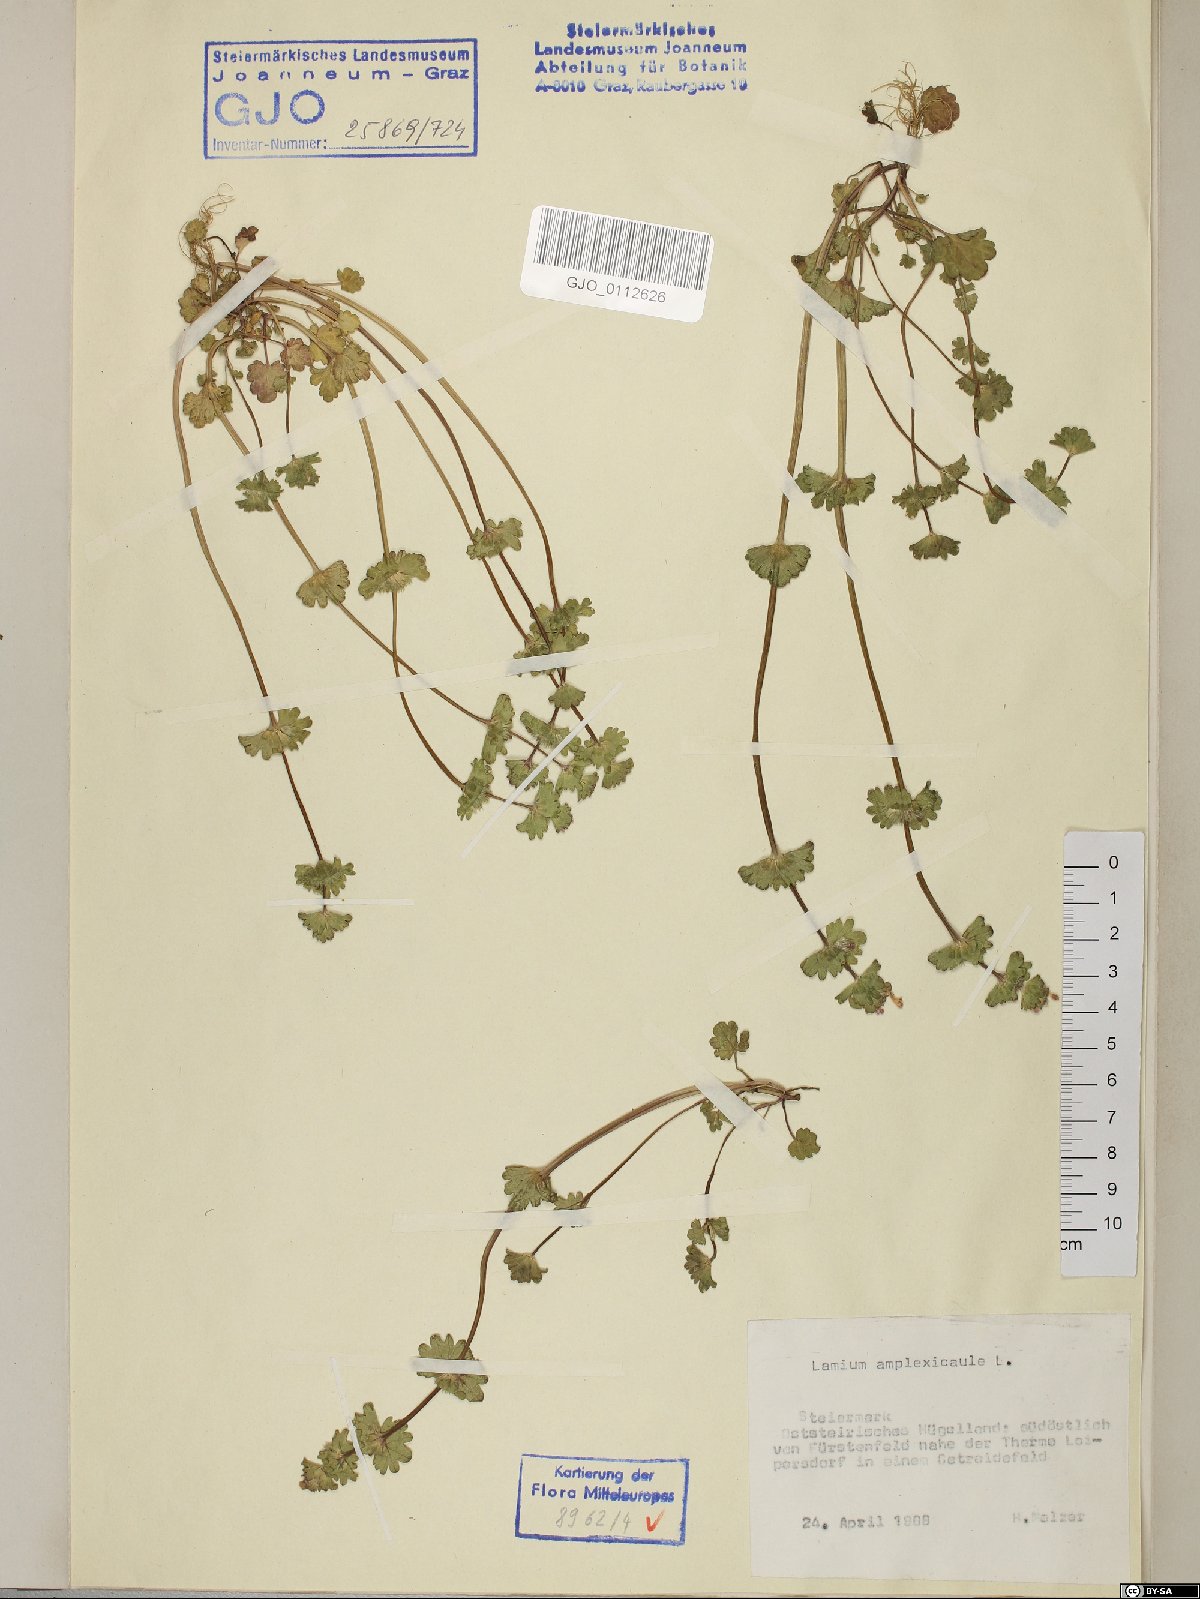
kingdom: Plantae
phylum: Tracheophyta
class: Magnoliopsida
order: Lamiales
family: Lamiaceae
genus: Lamium
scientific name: Lamium amplexicaule
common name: Henbit dead-nettle
